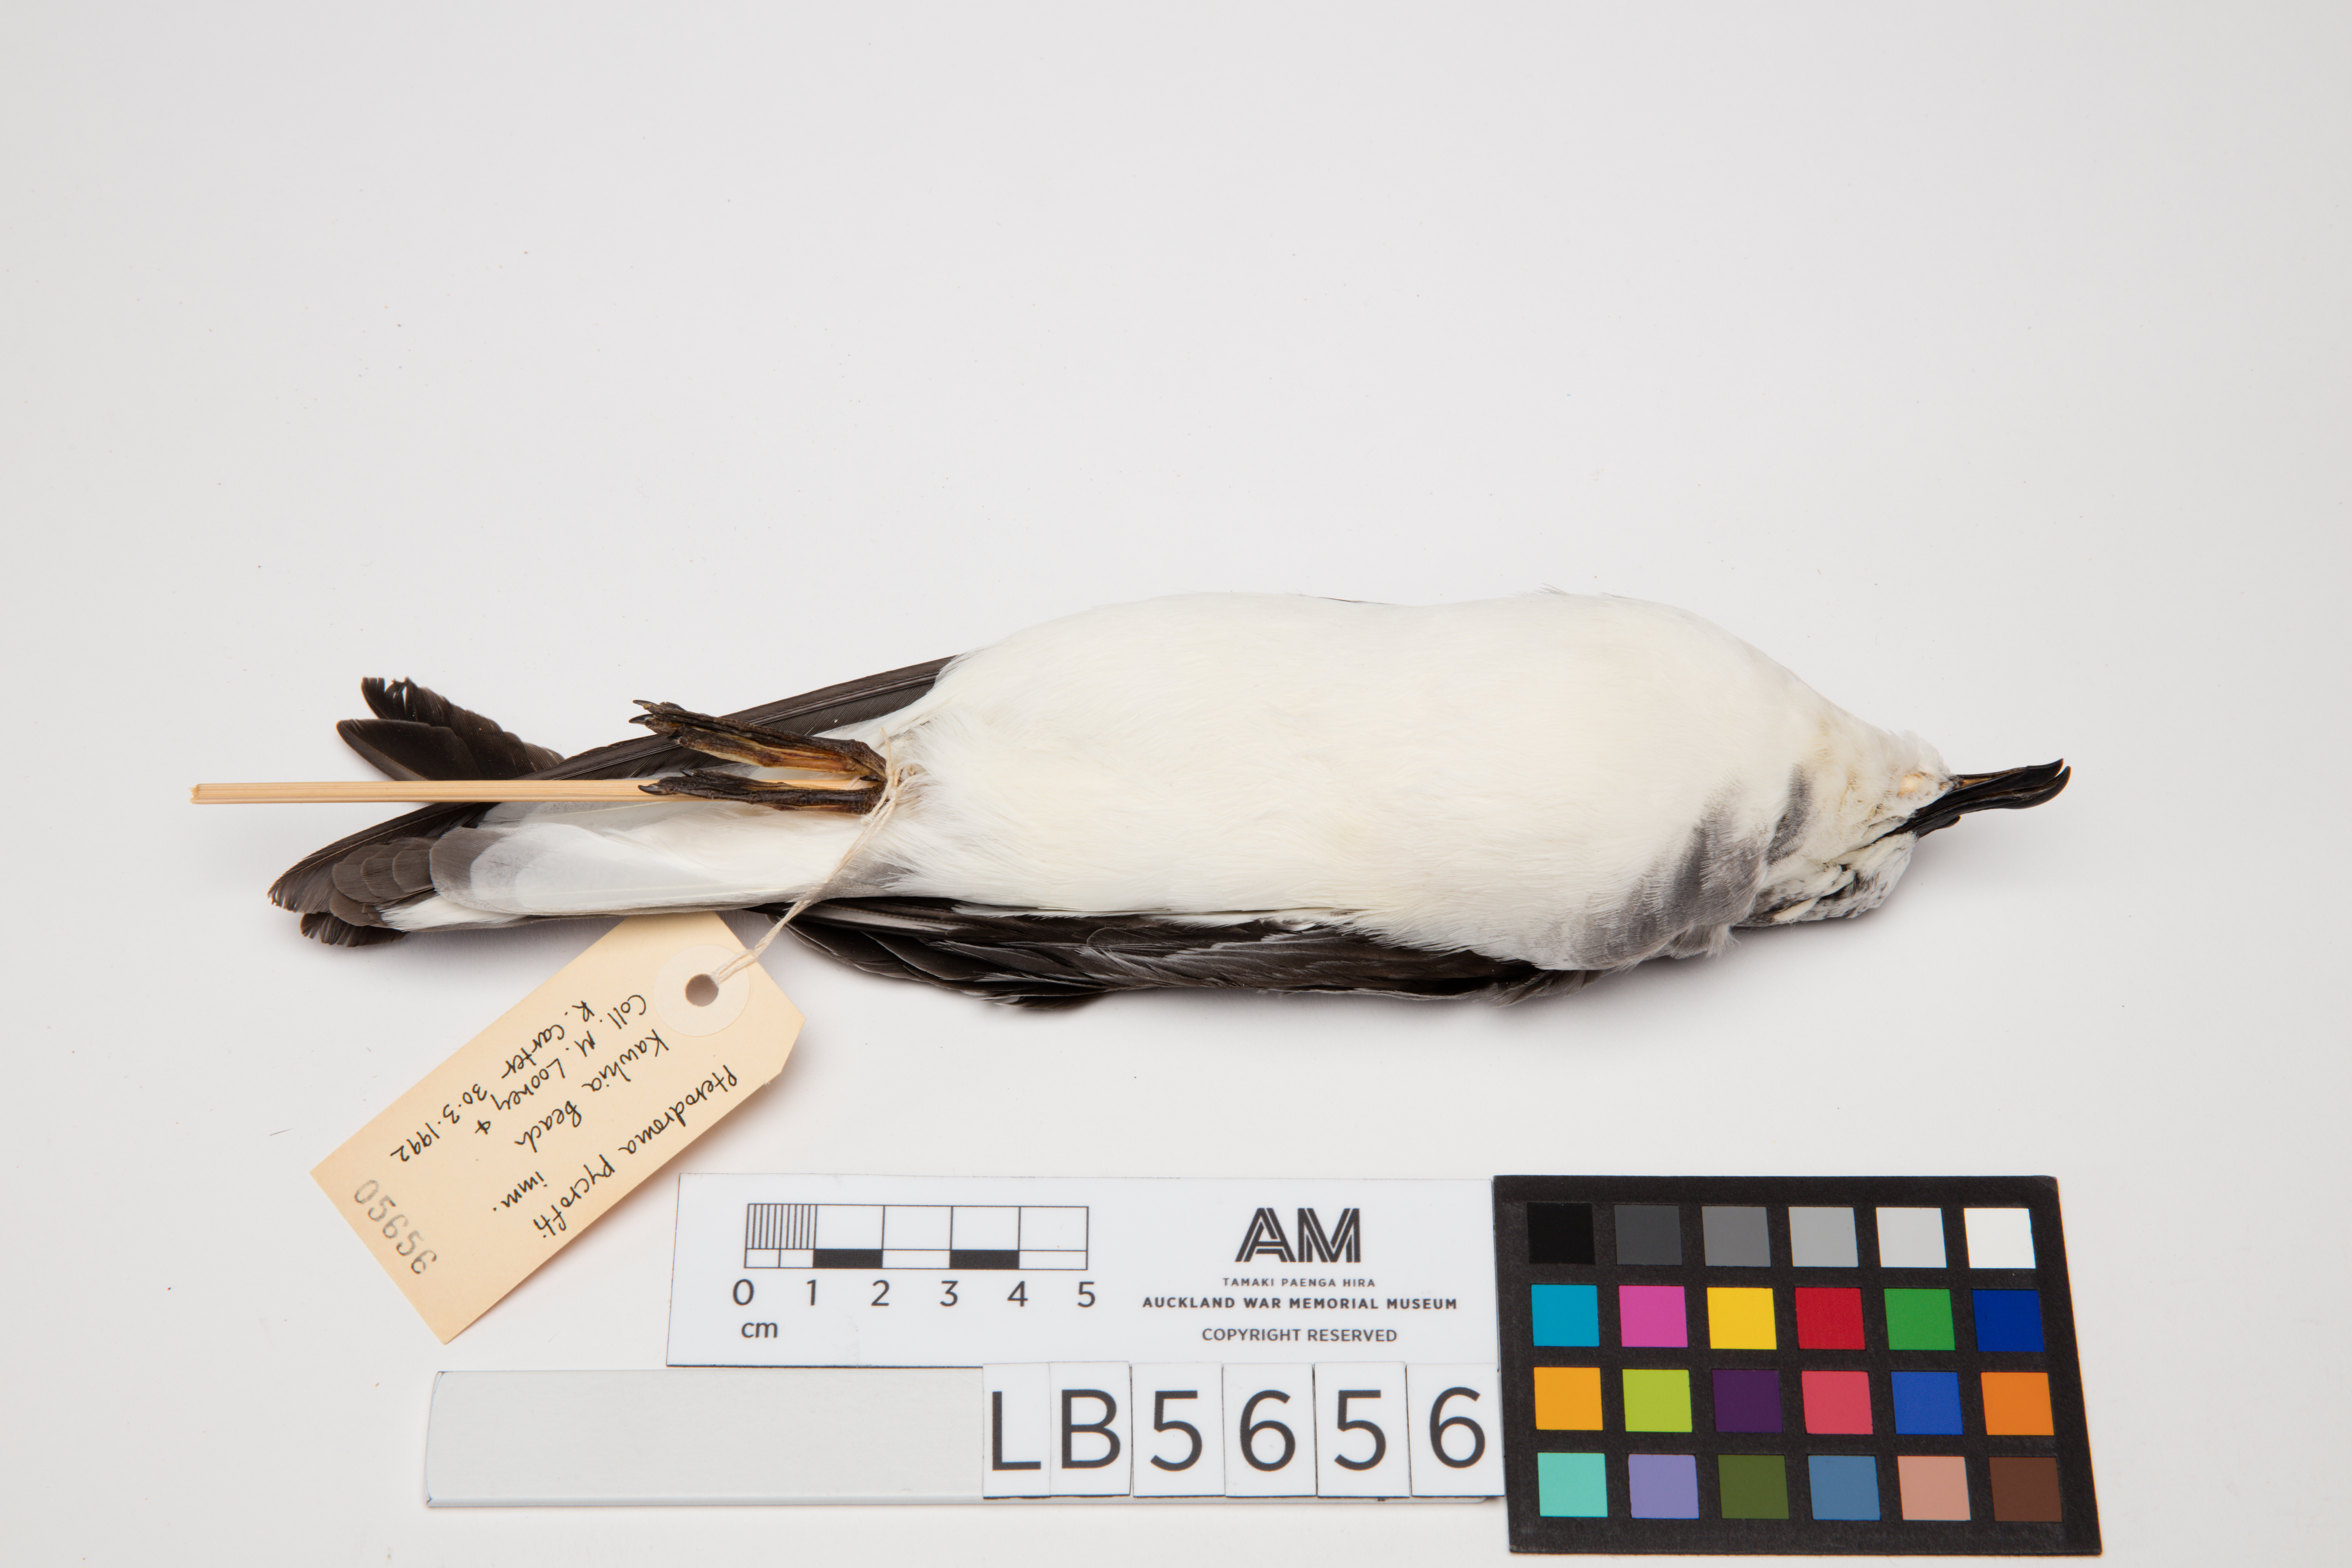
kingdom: Animalia
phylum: Chordata
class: Aves
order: Procellariiformes
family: Procellariidae
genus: Pterodroma
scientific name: Pterodroma pycrofti
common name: Pycroft's petrel
